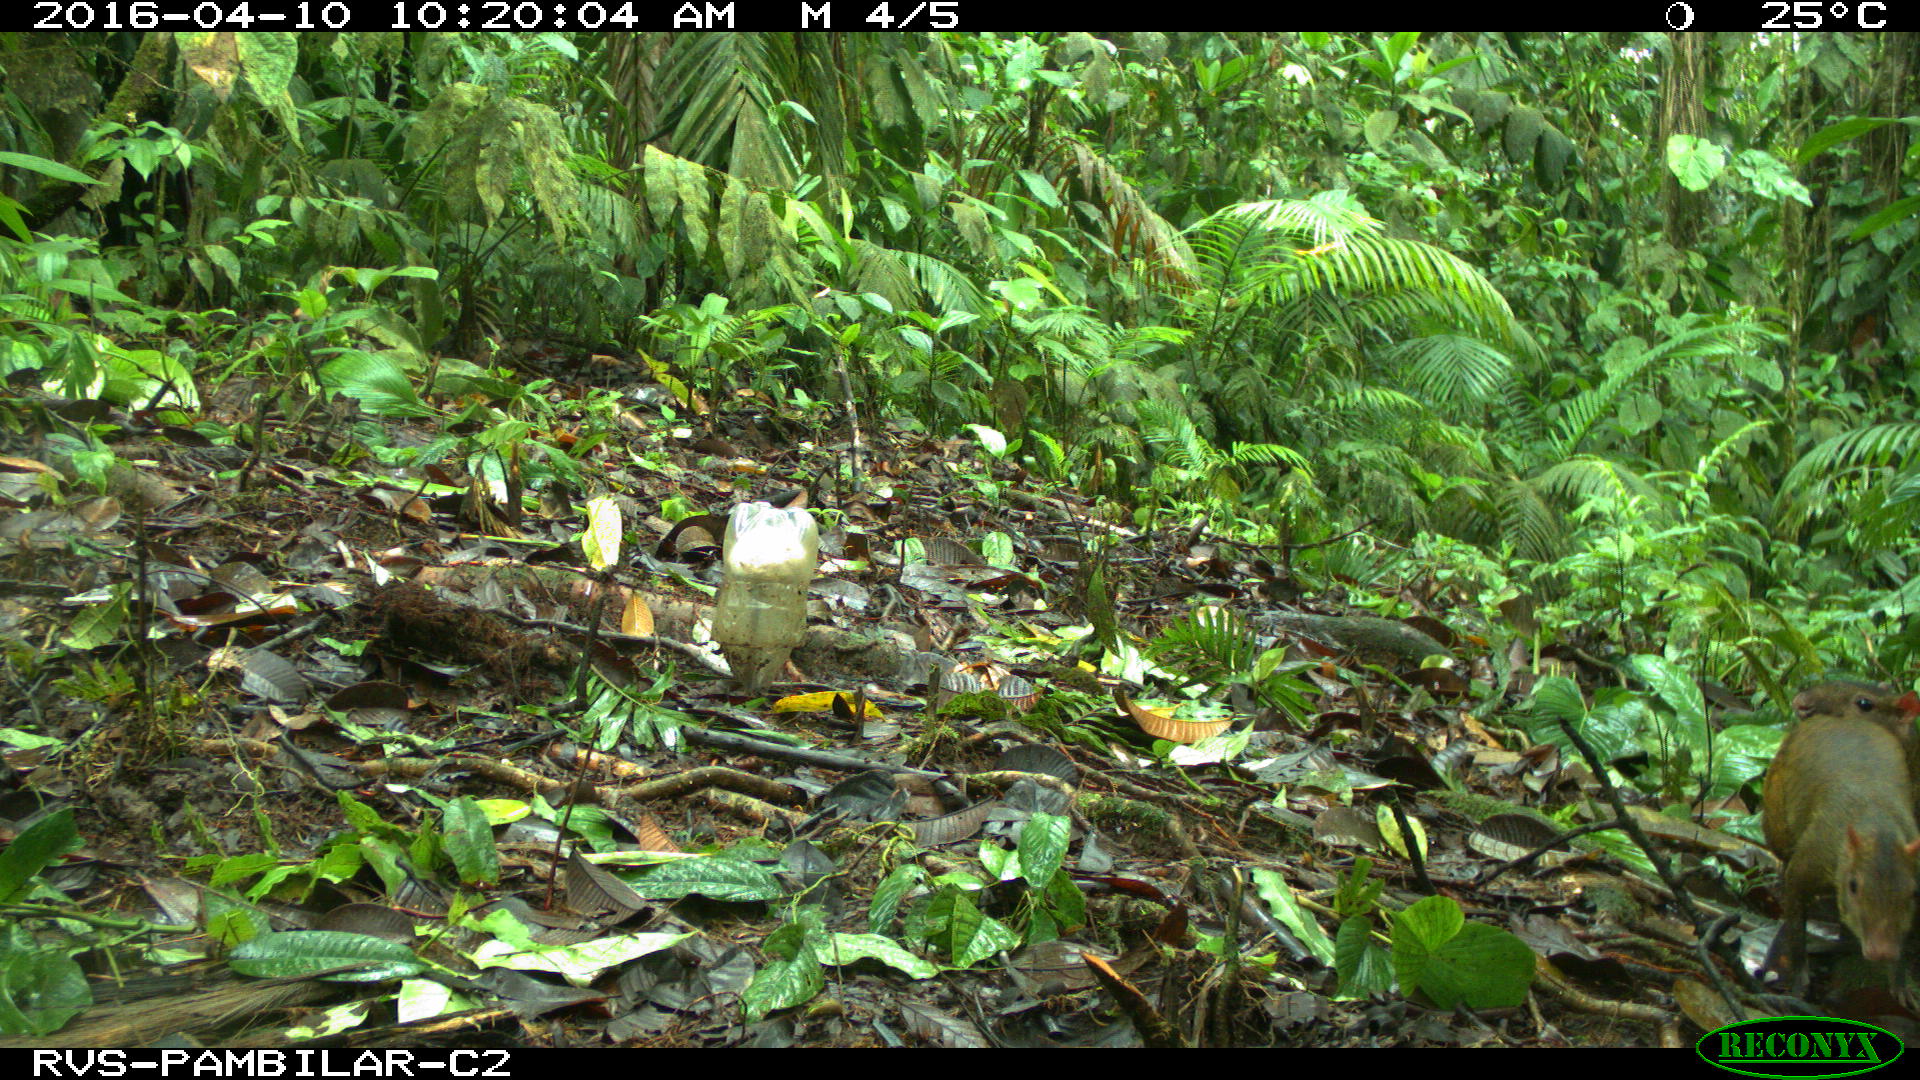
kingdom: Animalia
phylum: Chordata
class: Mammalia
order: Rodentia
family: Dasyproctidae
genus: Dasyprocta
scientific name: Dasyprocta punctata
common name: Central american agouti
